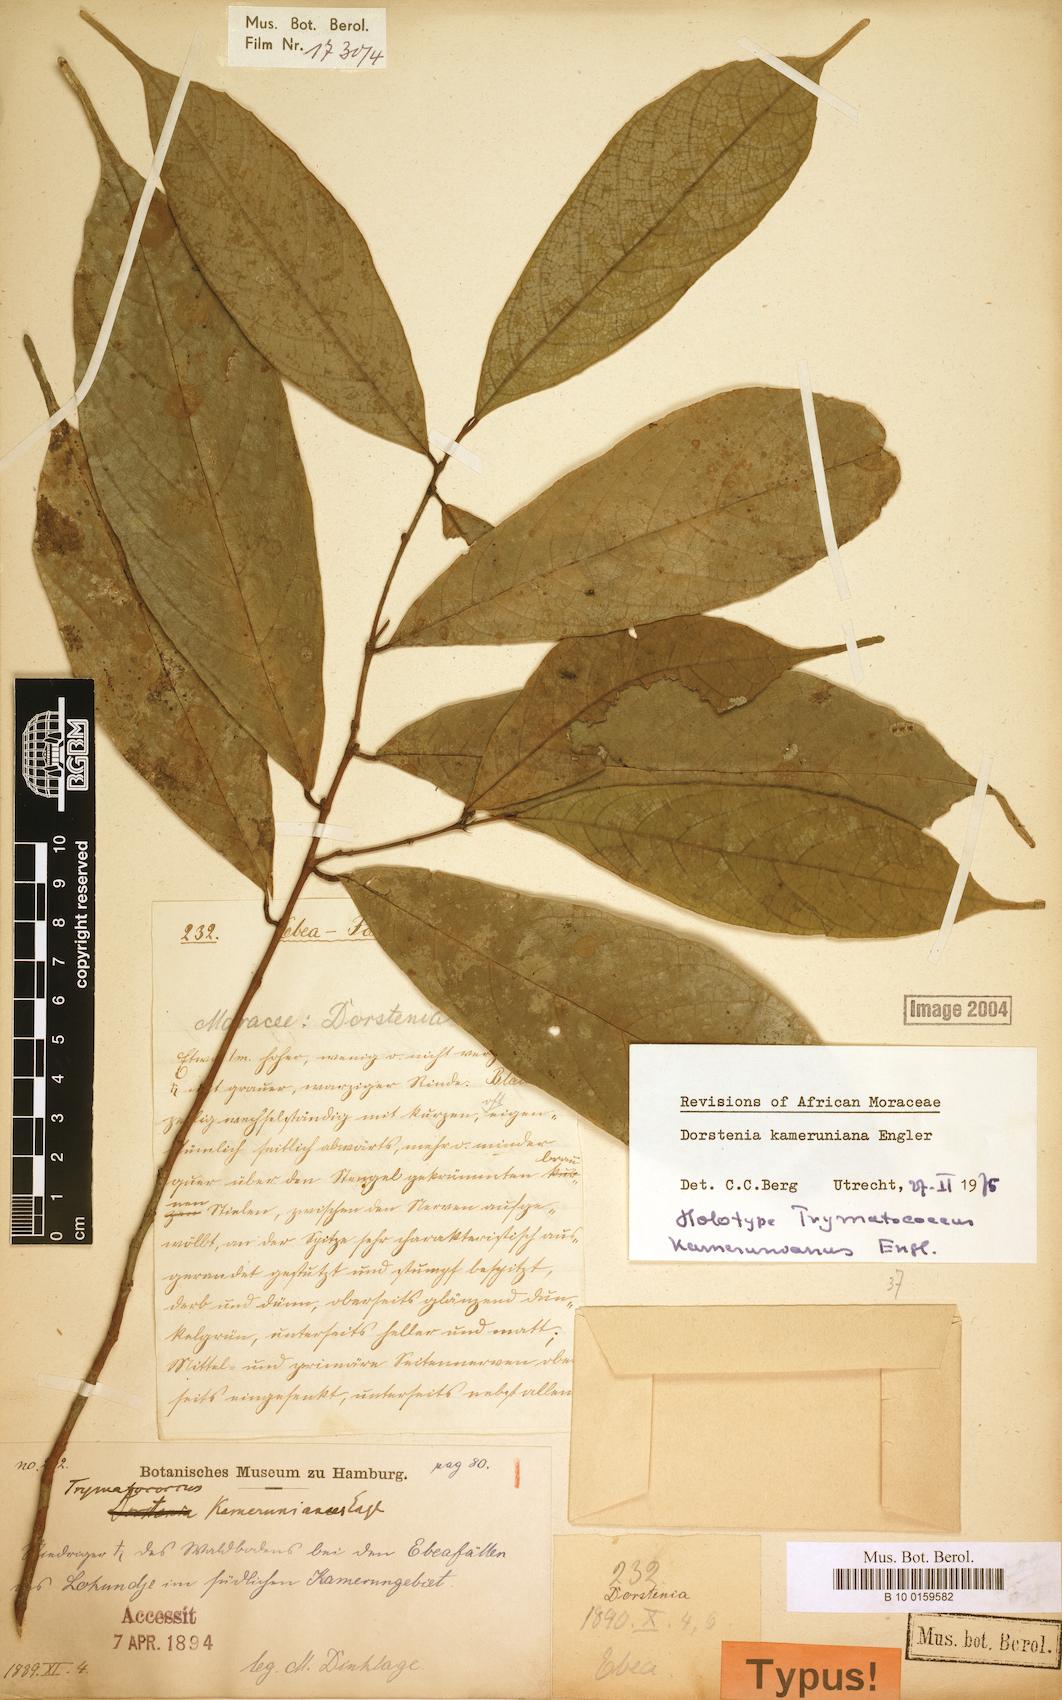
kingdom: Plantae
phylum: Tracheophyta
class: Magnoliopsida
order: Rosales
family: Moraceae
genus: Dorstenia
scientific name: Dorstenia kameruniana
